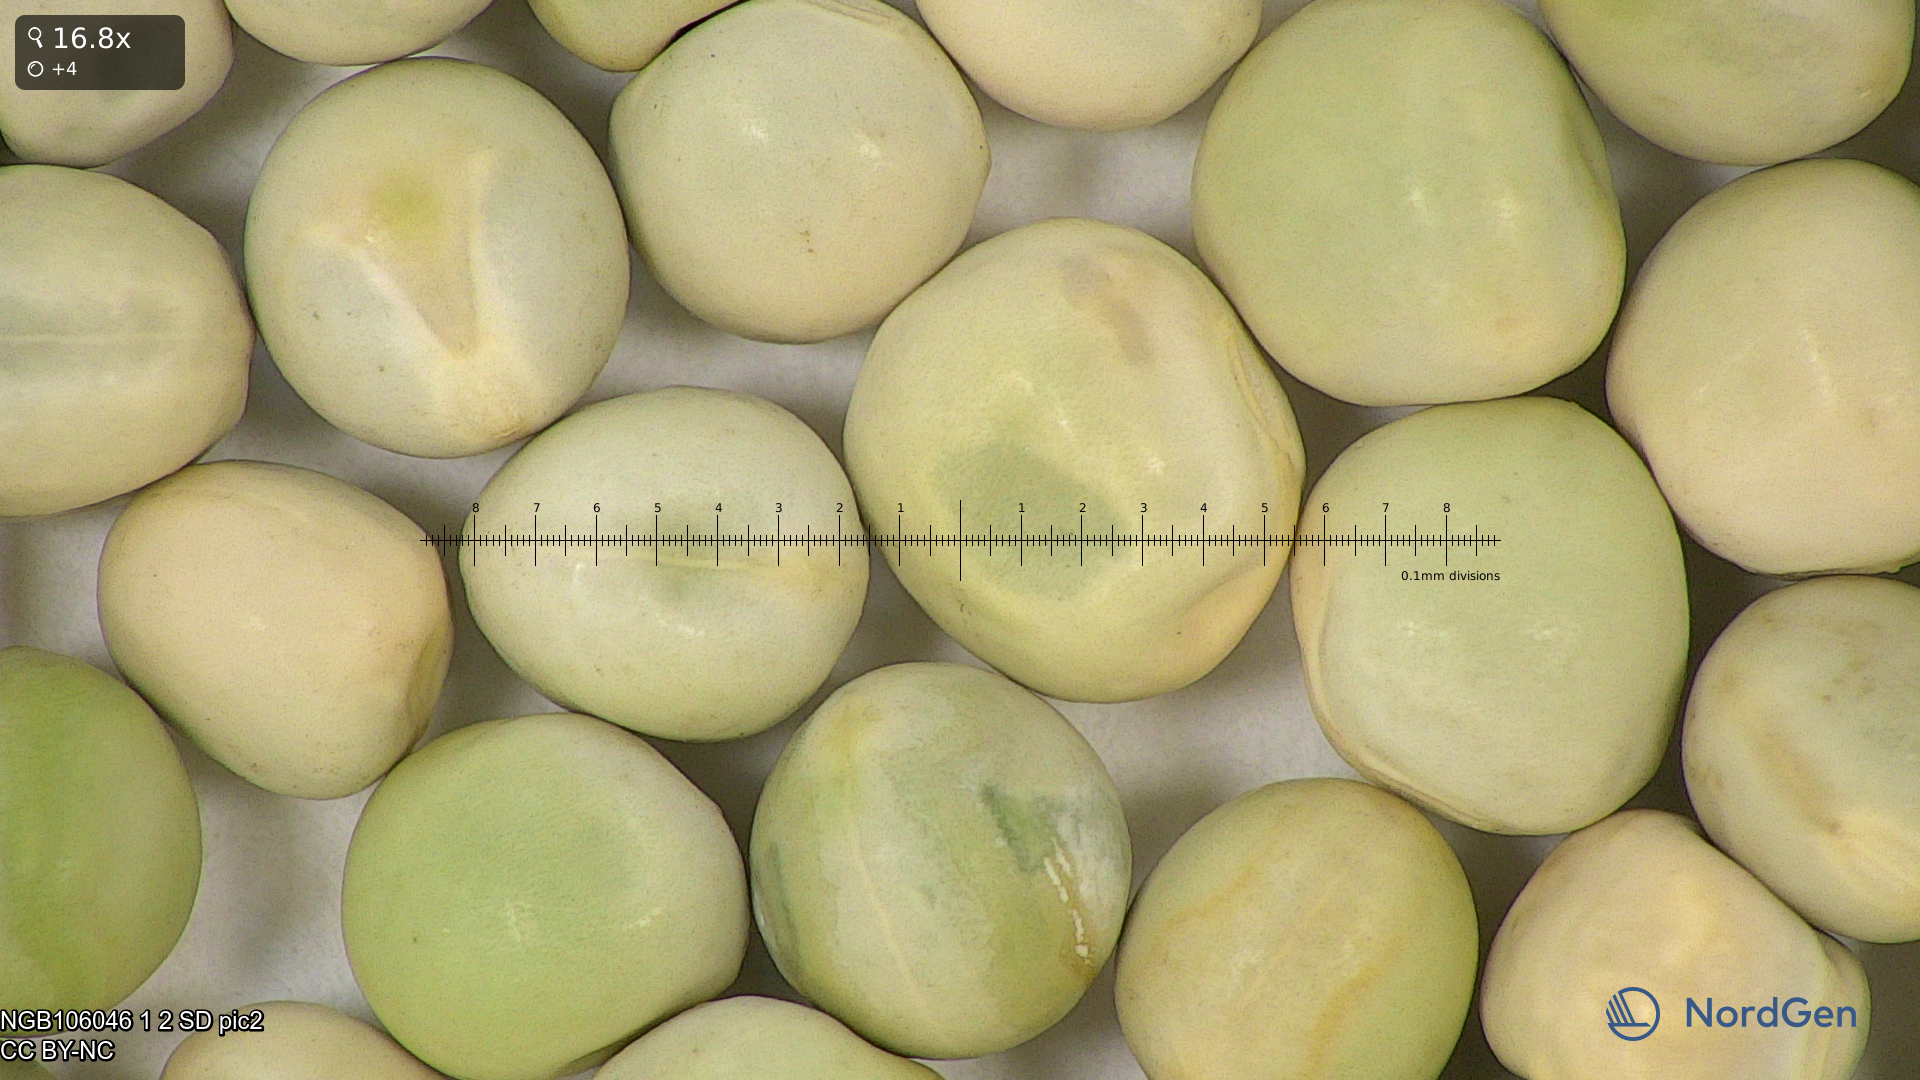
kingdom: Plantae
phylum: Tracheophyta
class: Magnoliopsida
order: Fabales
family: Fabaceae
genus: Lathyrus
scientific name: Lathyrus oleraceus
